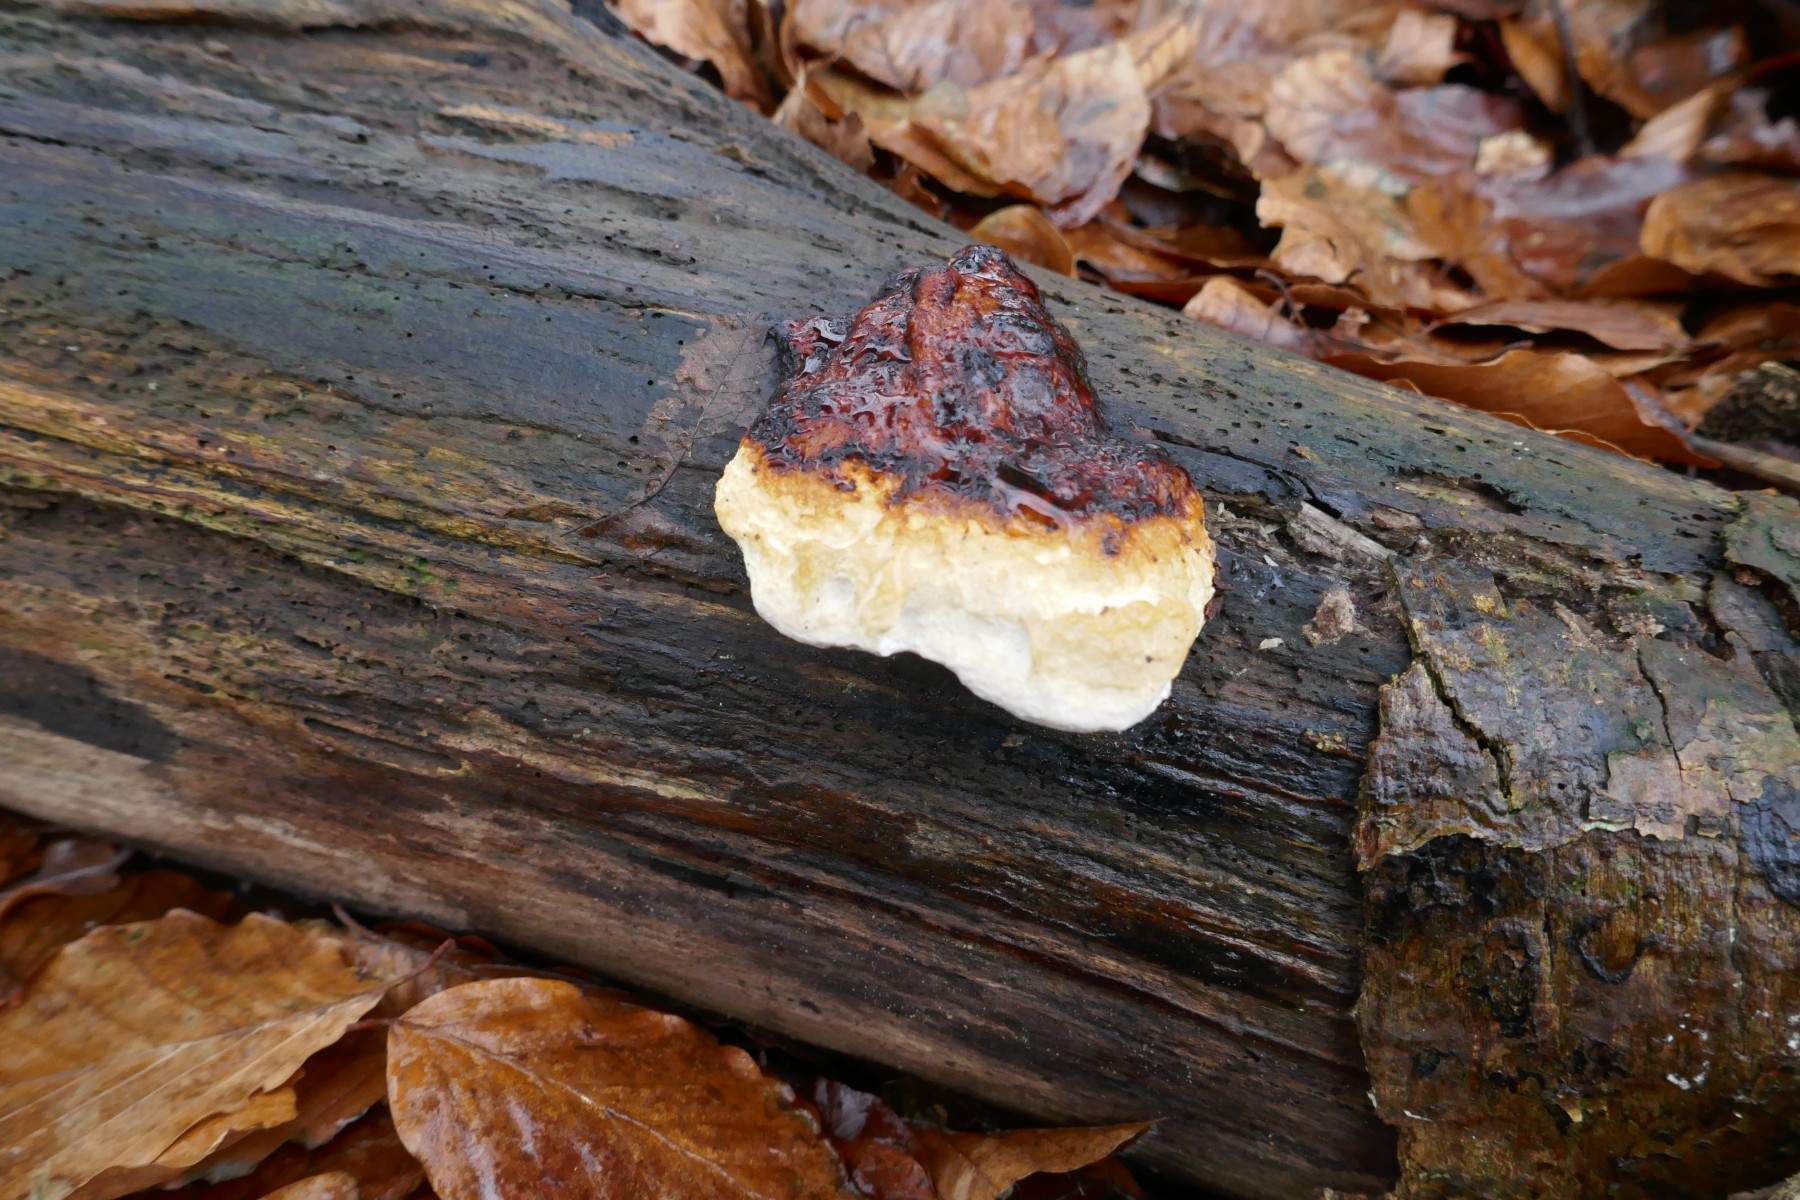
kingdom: Fungi
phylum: Basidiomycota
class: Agaricomycetes
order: Polyporales
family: Fomitopsidaceae
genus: Fomitopsis
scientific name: Fomitopsis pinicola
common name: randbæltet hovporesvamp
